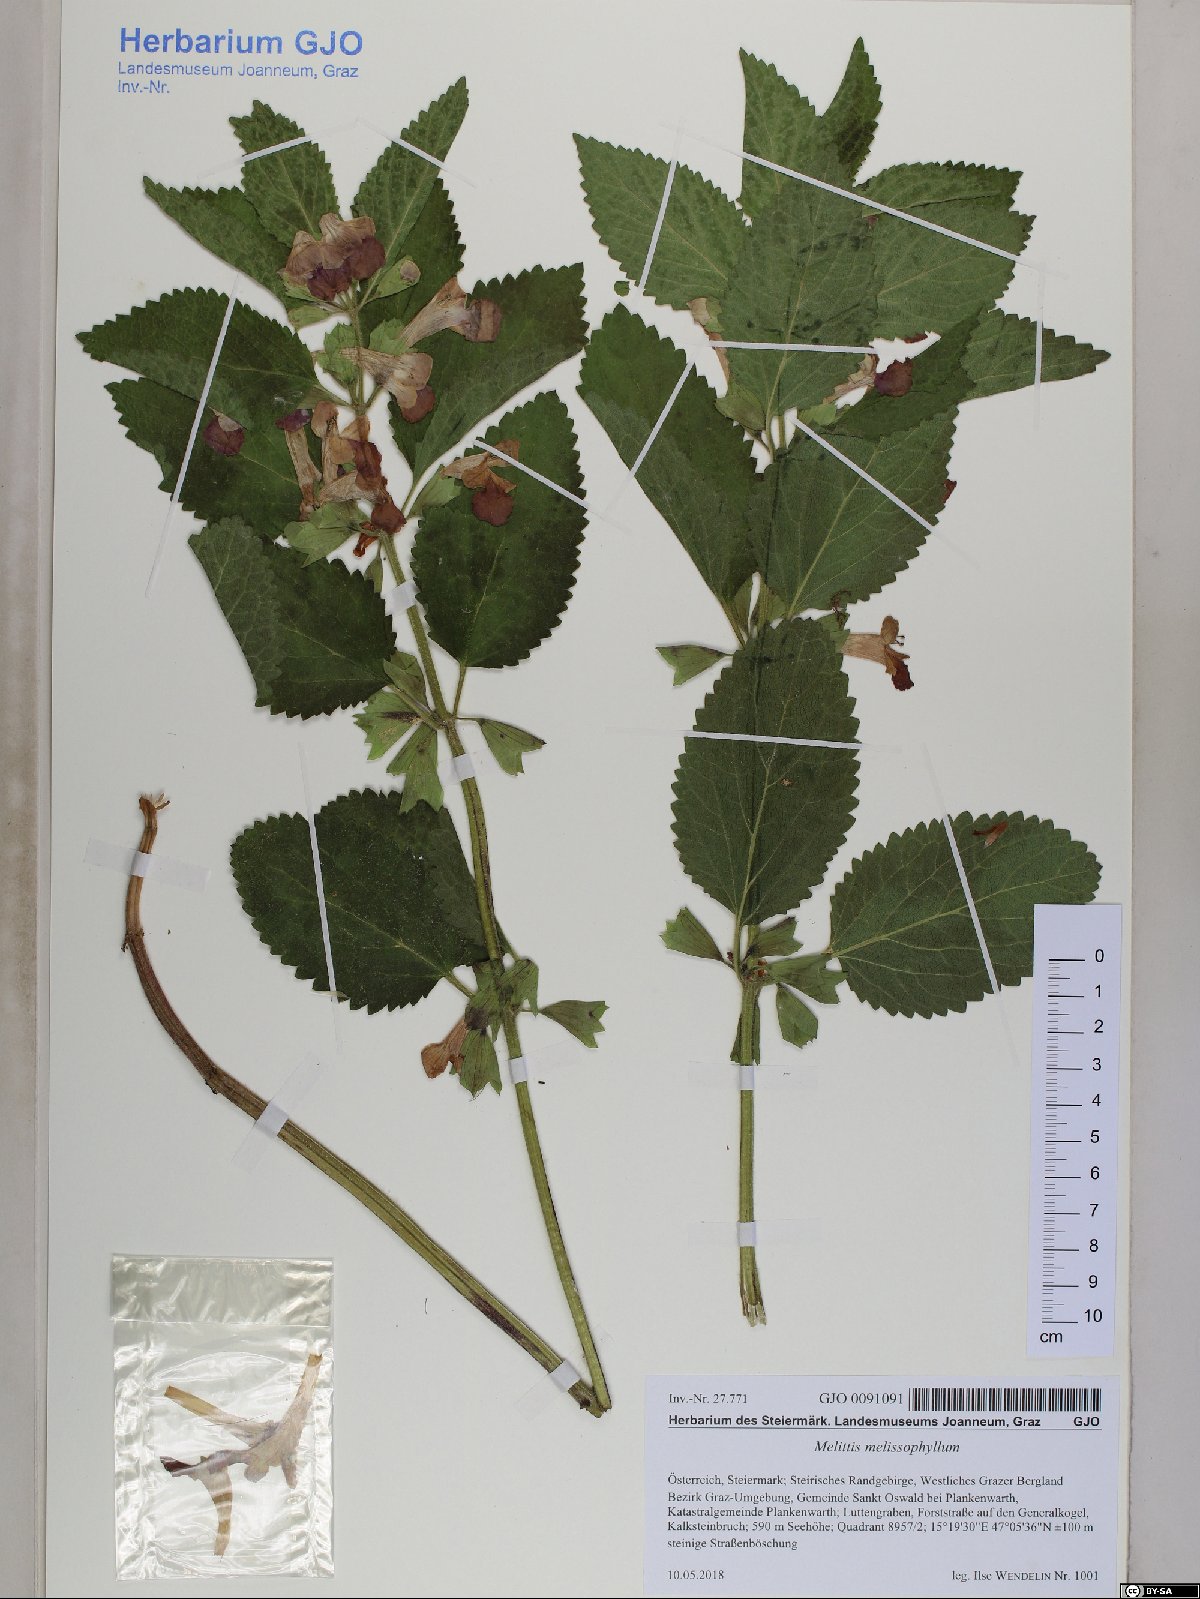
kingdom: Plantae
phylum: Tracheophyta
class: Magnoliopsida
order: Lamiales
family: Lamiaceae
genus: Melittis
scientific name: Melittis melissophyllum
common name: Bastard balm
